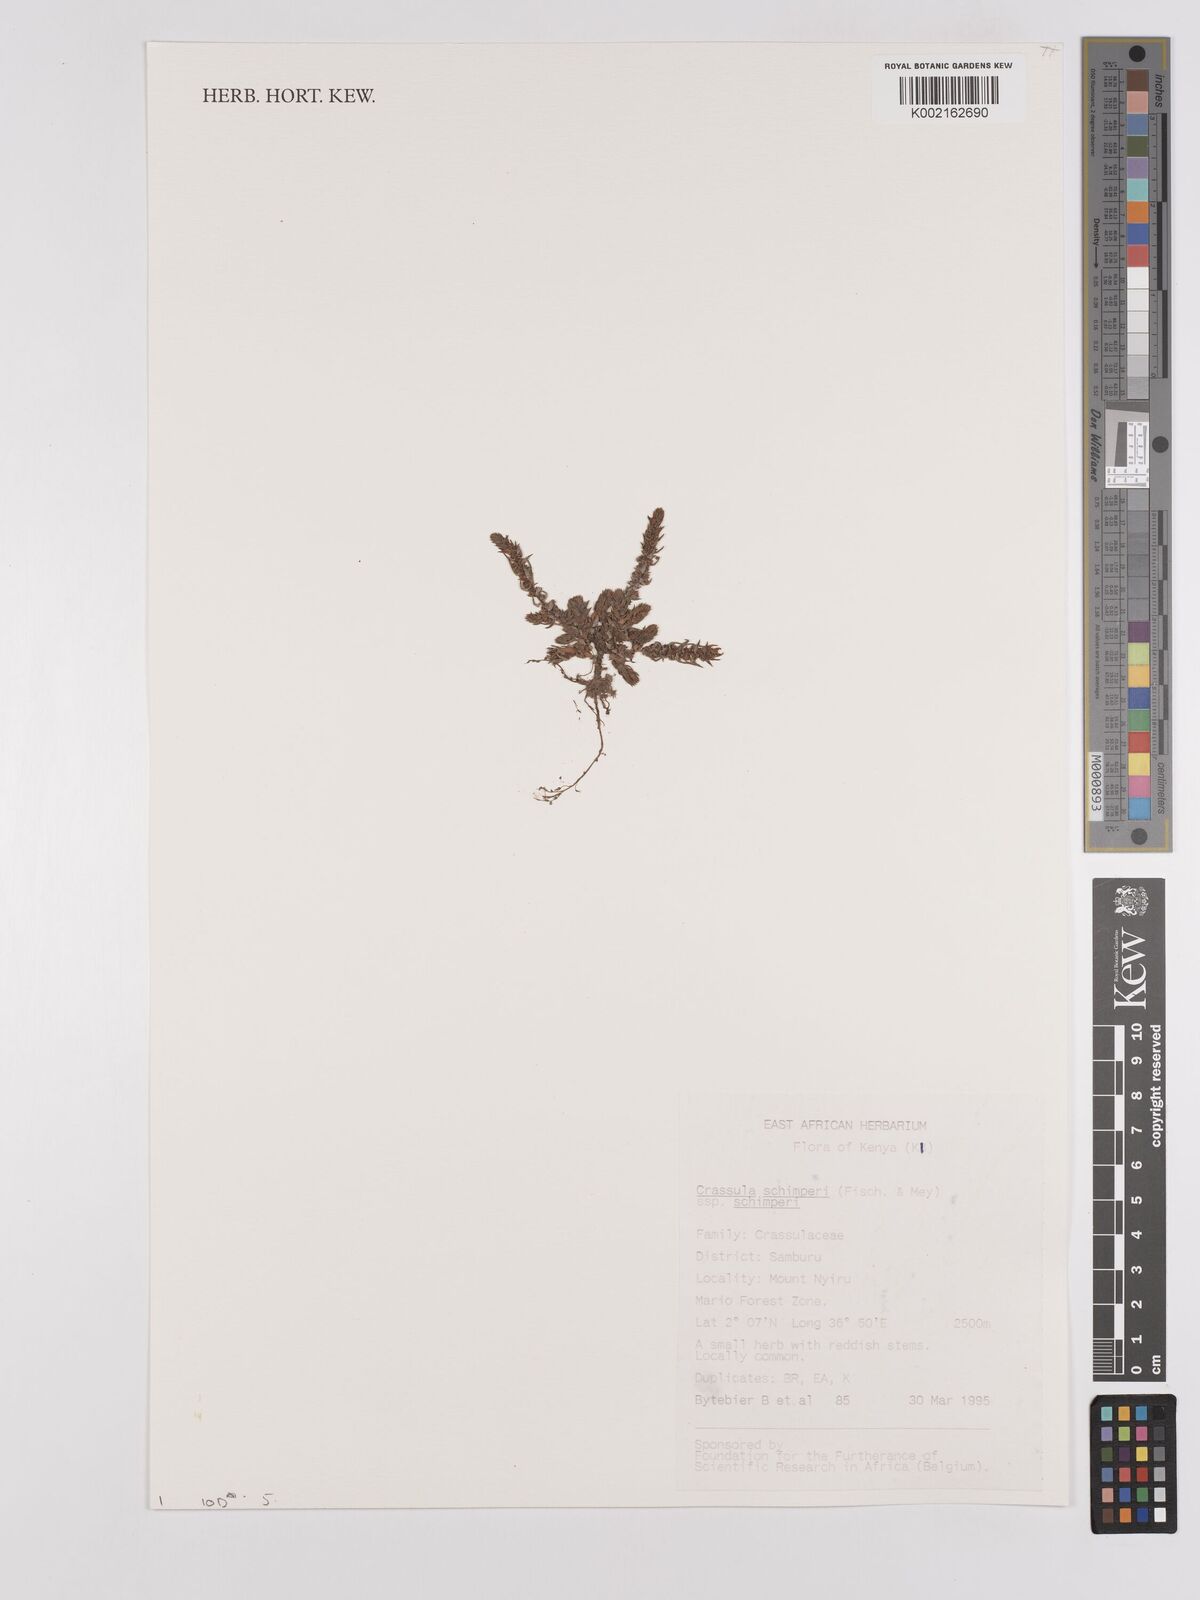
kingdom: Plantae
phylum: Tracheophyta
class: Magnoliopsida
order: Saxifragales
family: Crassulaceae
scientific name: Crassulaceae
